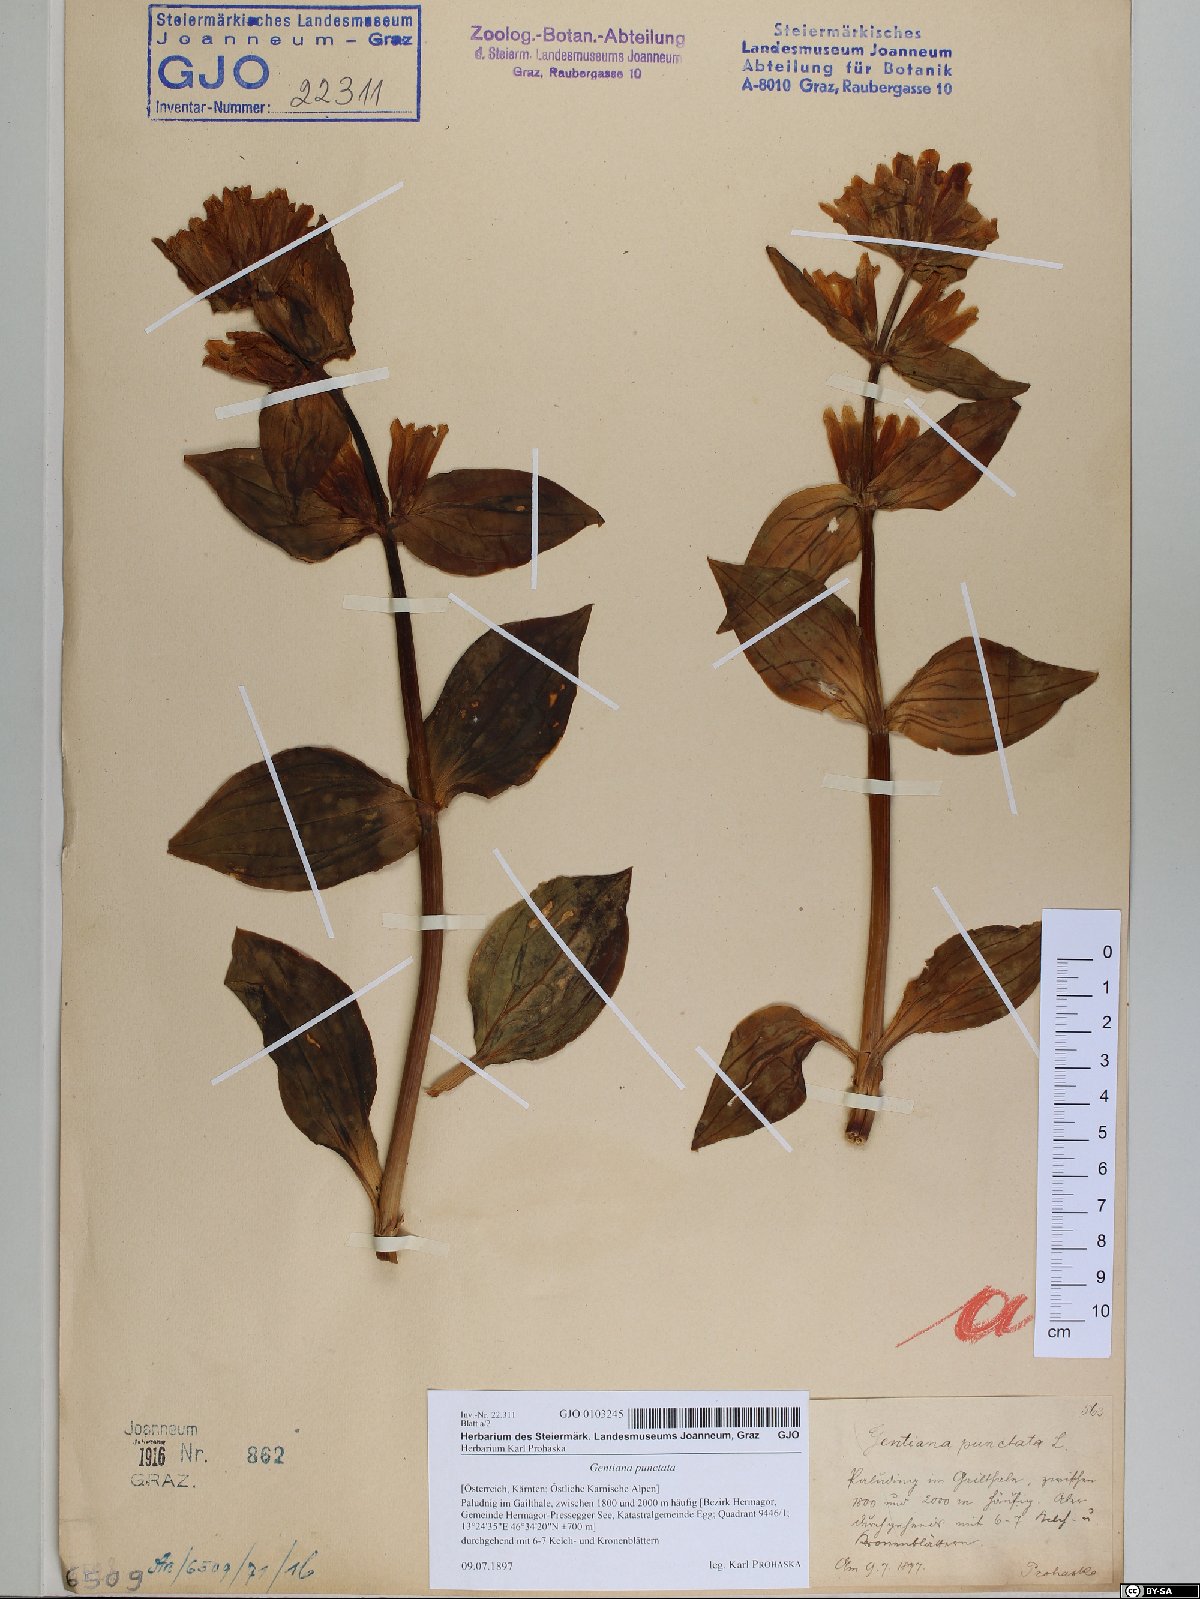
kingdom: Plantae
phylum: Tracheophyta
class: Magnoliopsida
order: Gentianales
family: Gentianaceae
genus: Gentiana
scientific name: Gentiana punctata
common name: Spotted gentian
